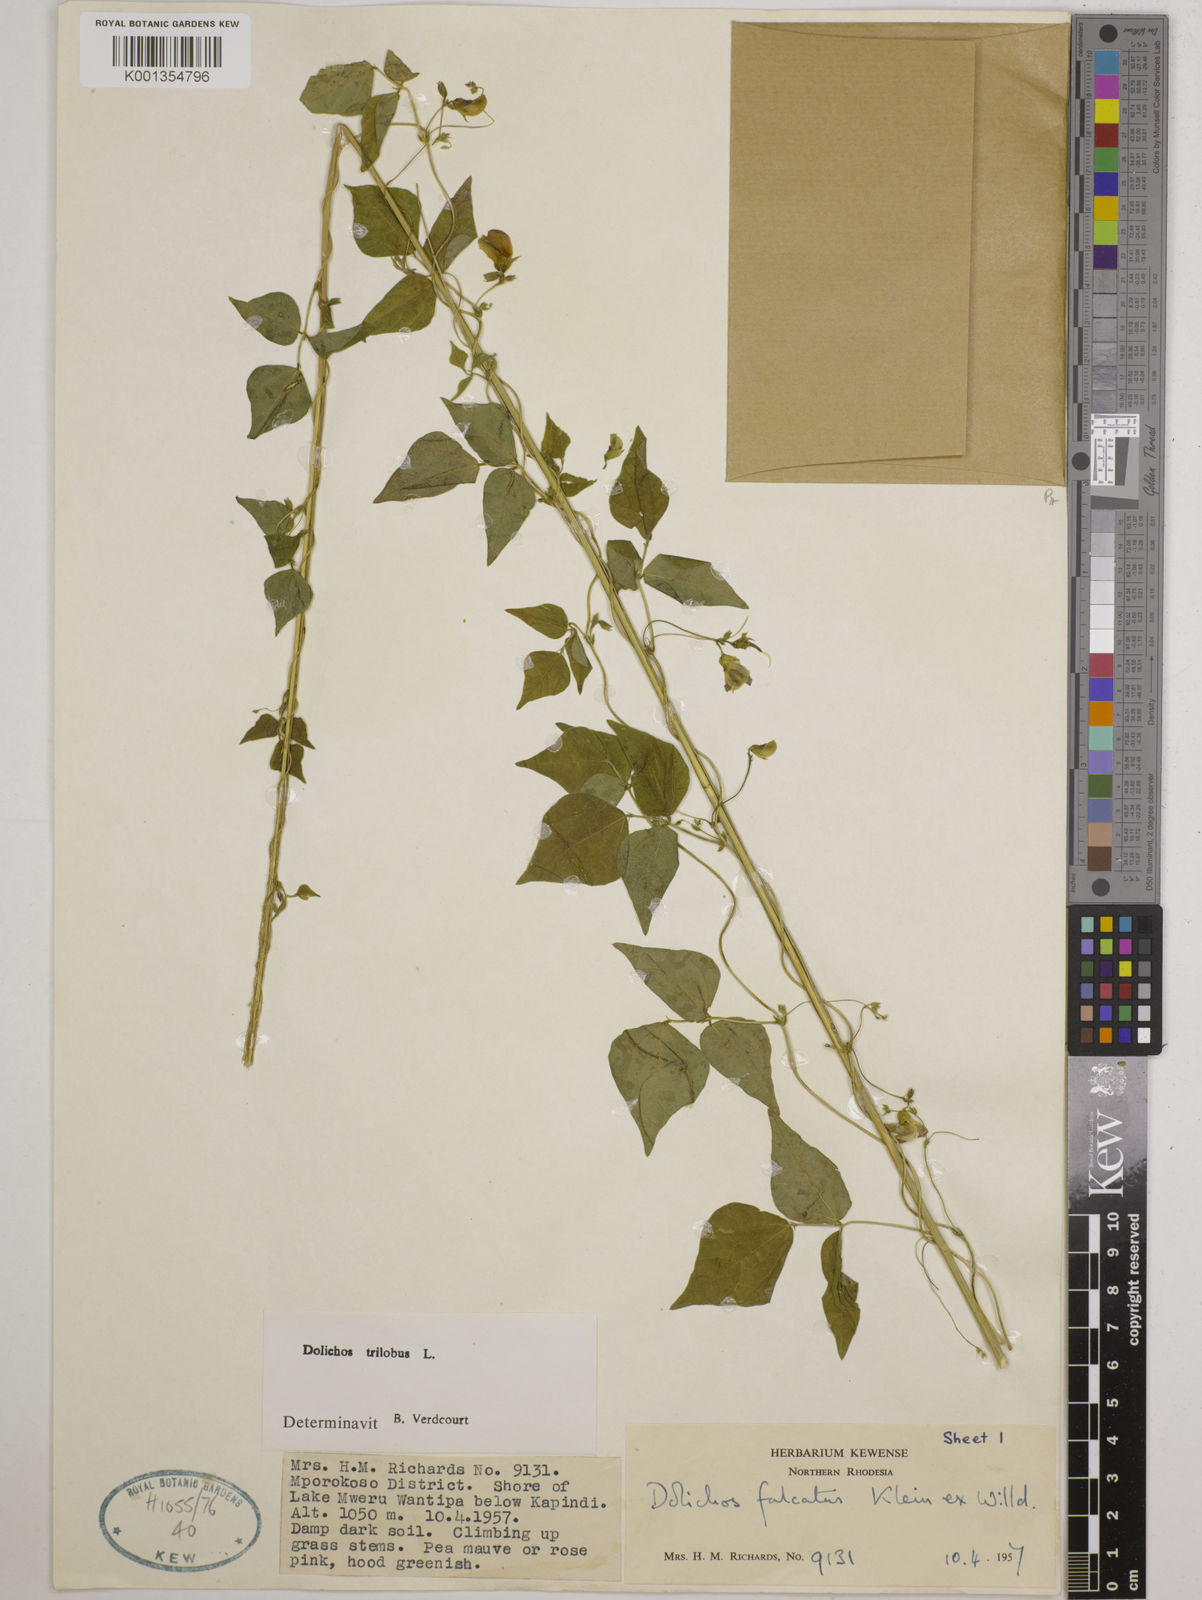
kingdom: Plantae
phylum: Tracheophyta
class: Magnoliopsida
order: Fabales
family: Fabaceae
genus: Dolichos
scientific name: Dolichos
